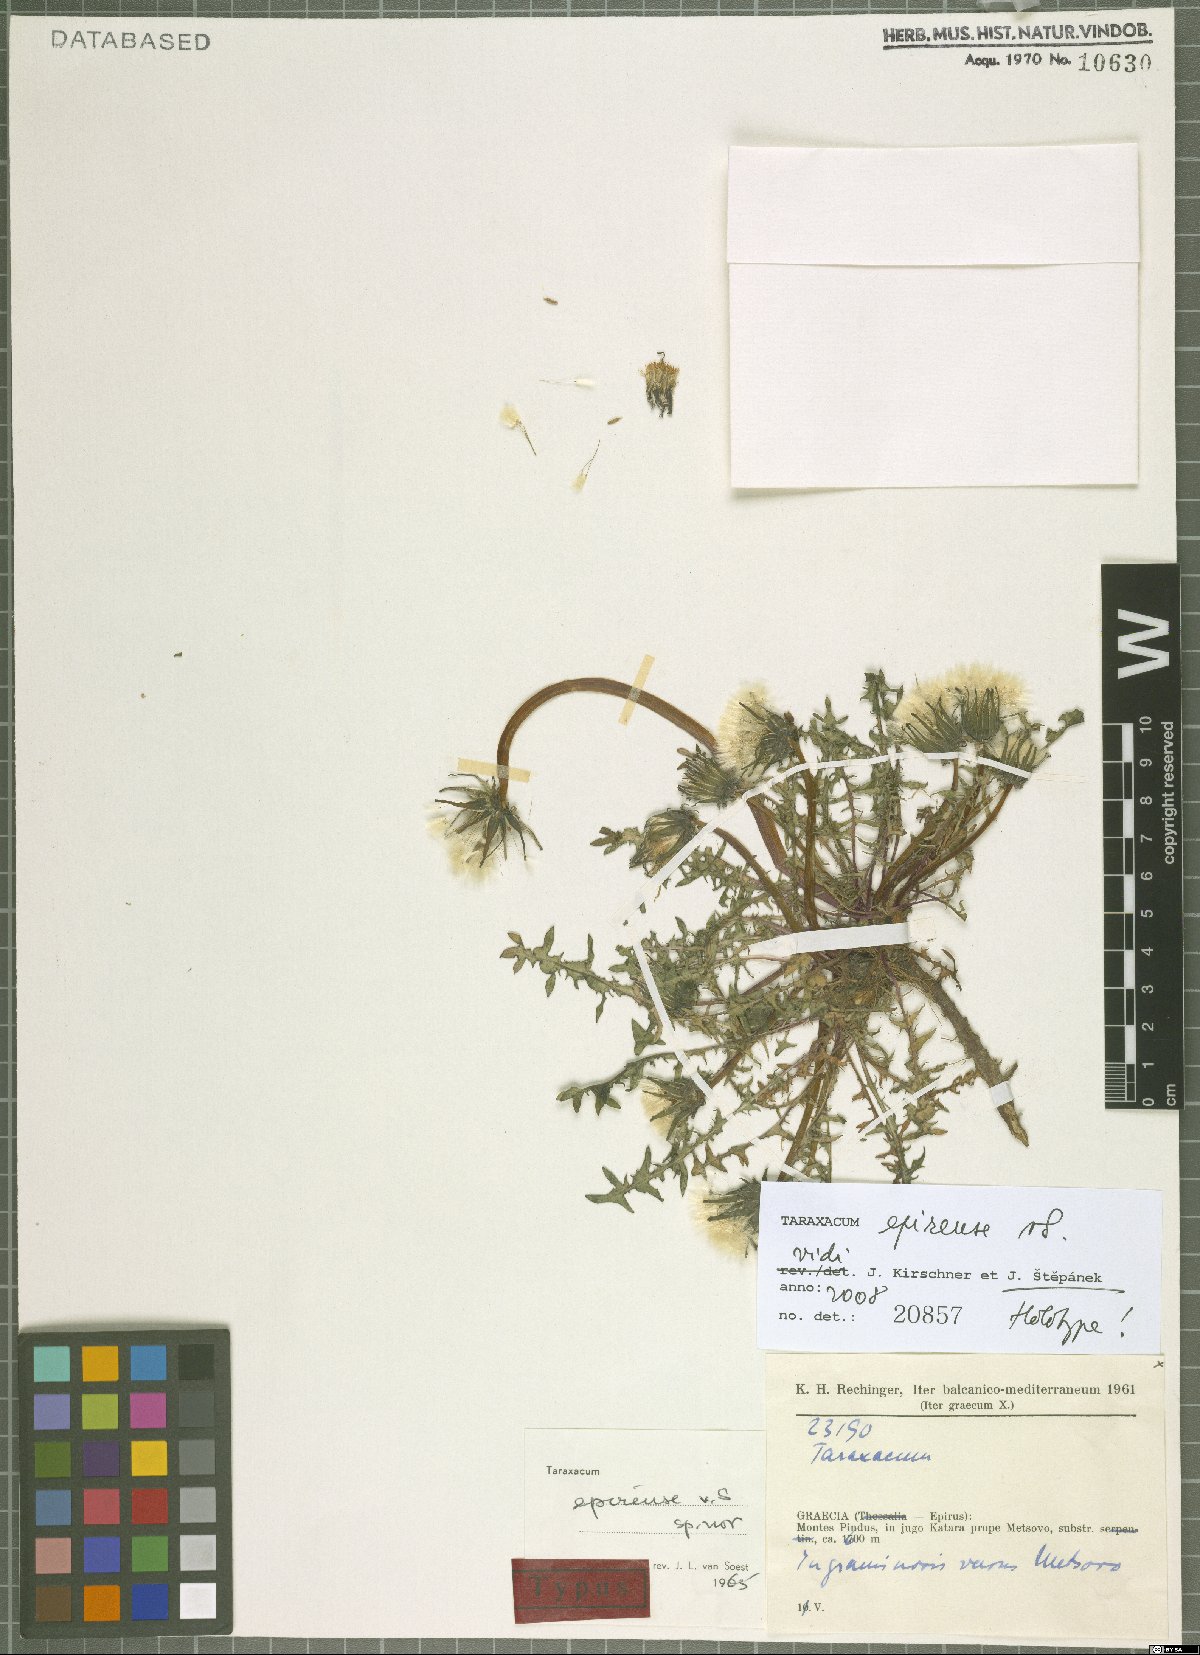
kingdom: Plantae
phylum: Tracheophyta
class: Magnoliopsida
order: Asterales
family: Asteraceae
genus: Taraxacum
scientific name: Taraxacum epirense
